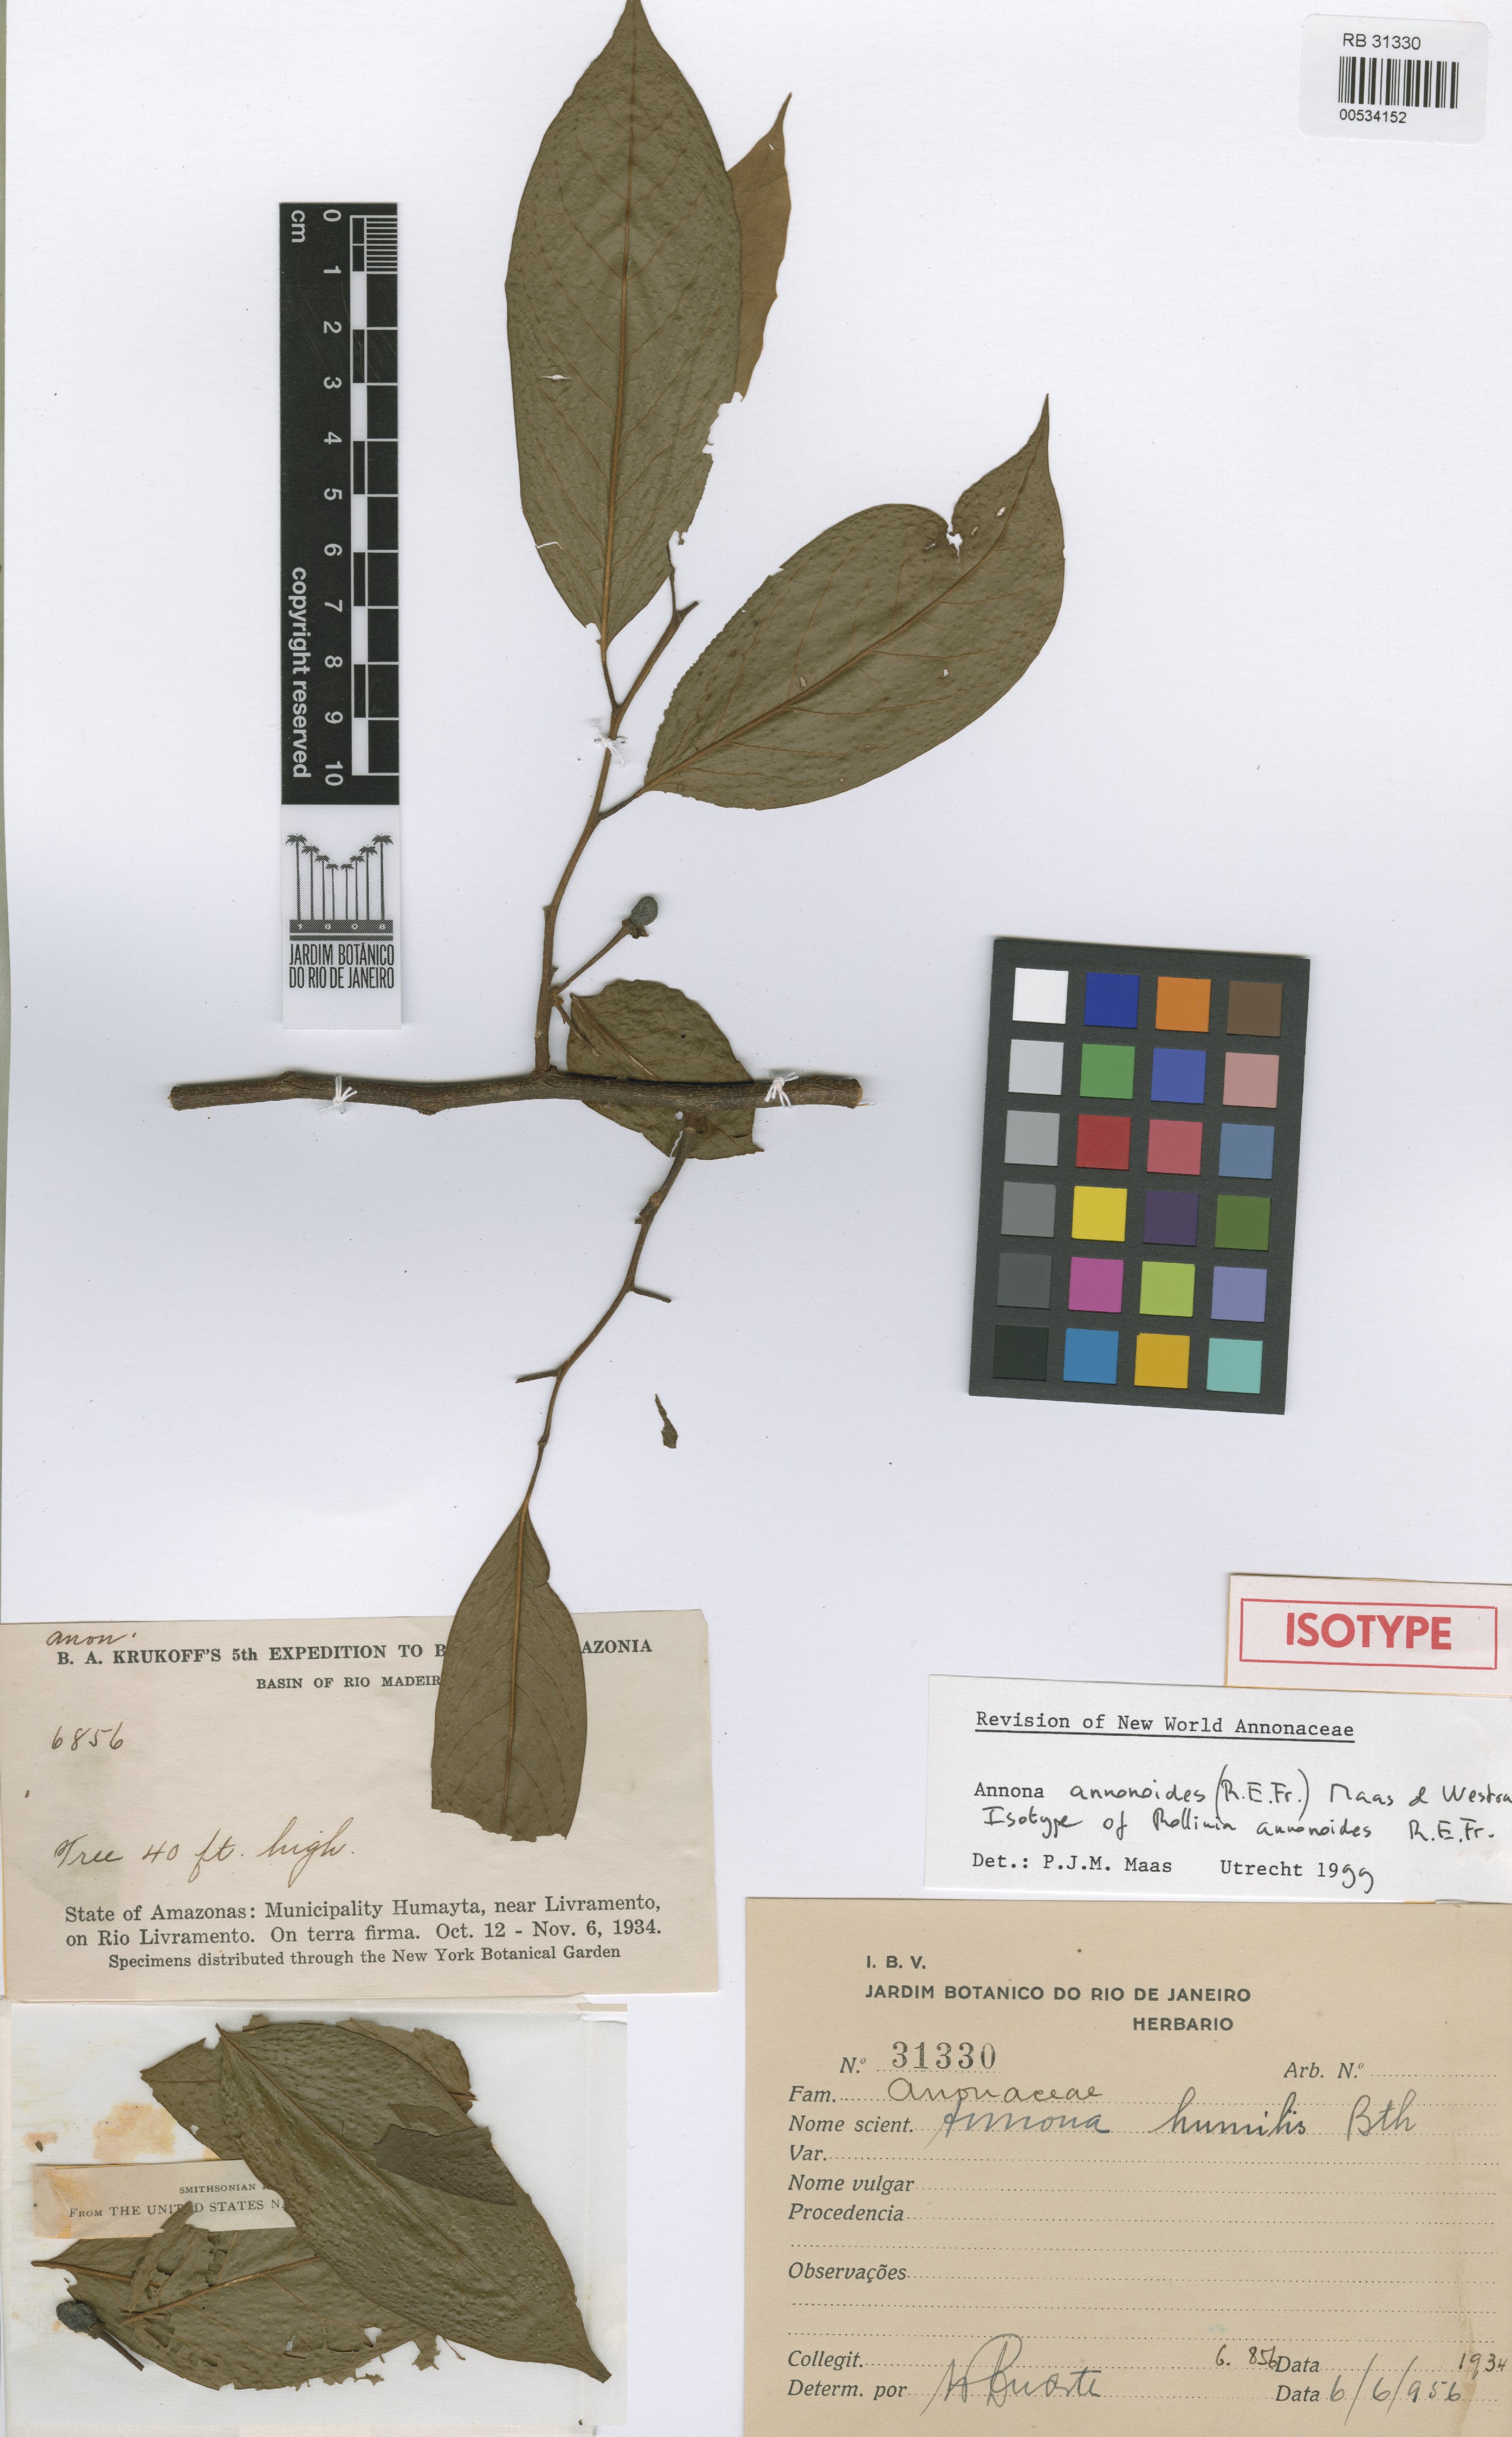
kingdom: Plantae
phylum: Tracheophyta
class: Magnoliopsida
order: Magnoliales
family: Annonaceae
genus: Annona
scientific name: Annona annonoides
